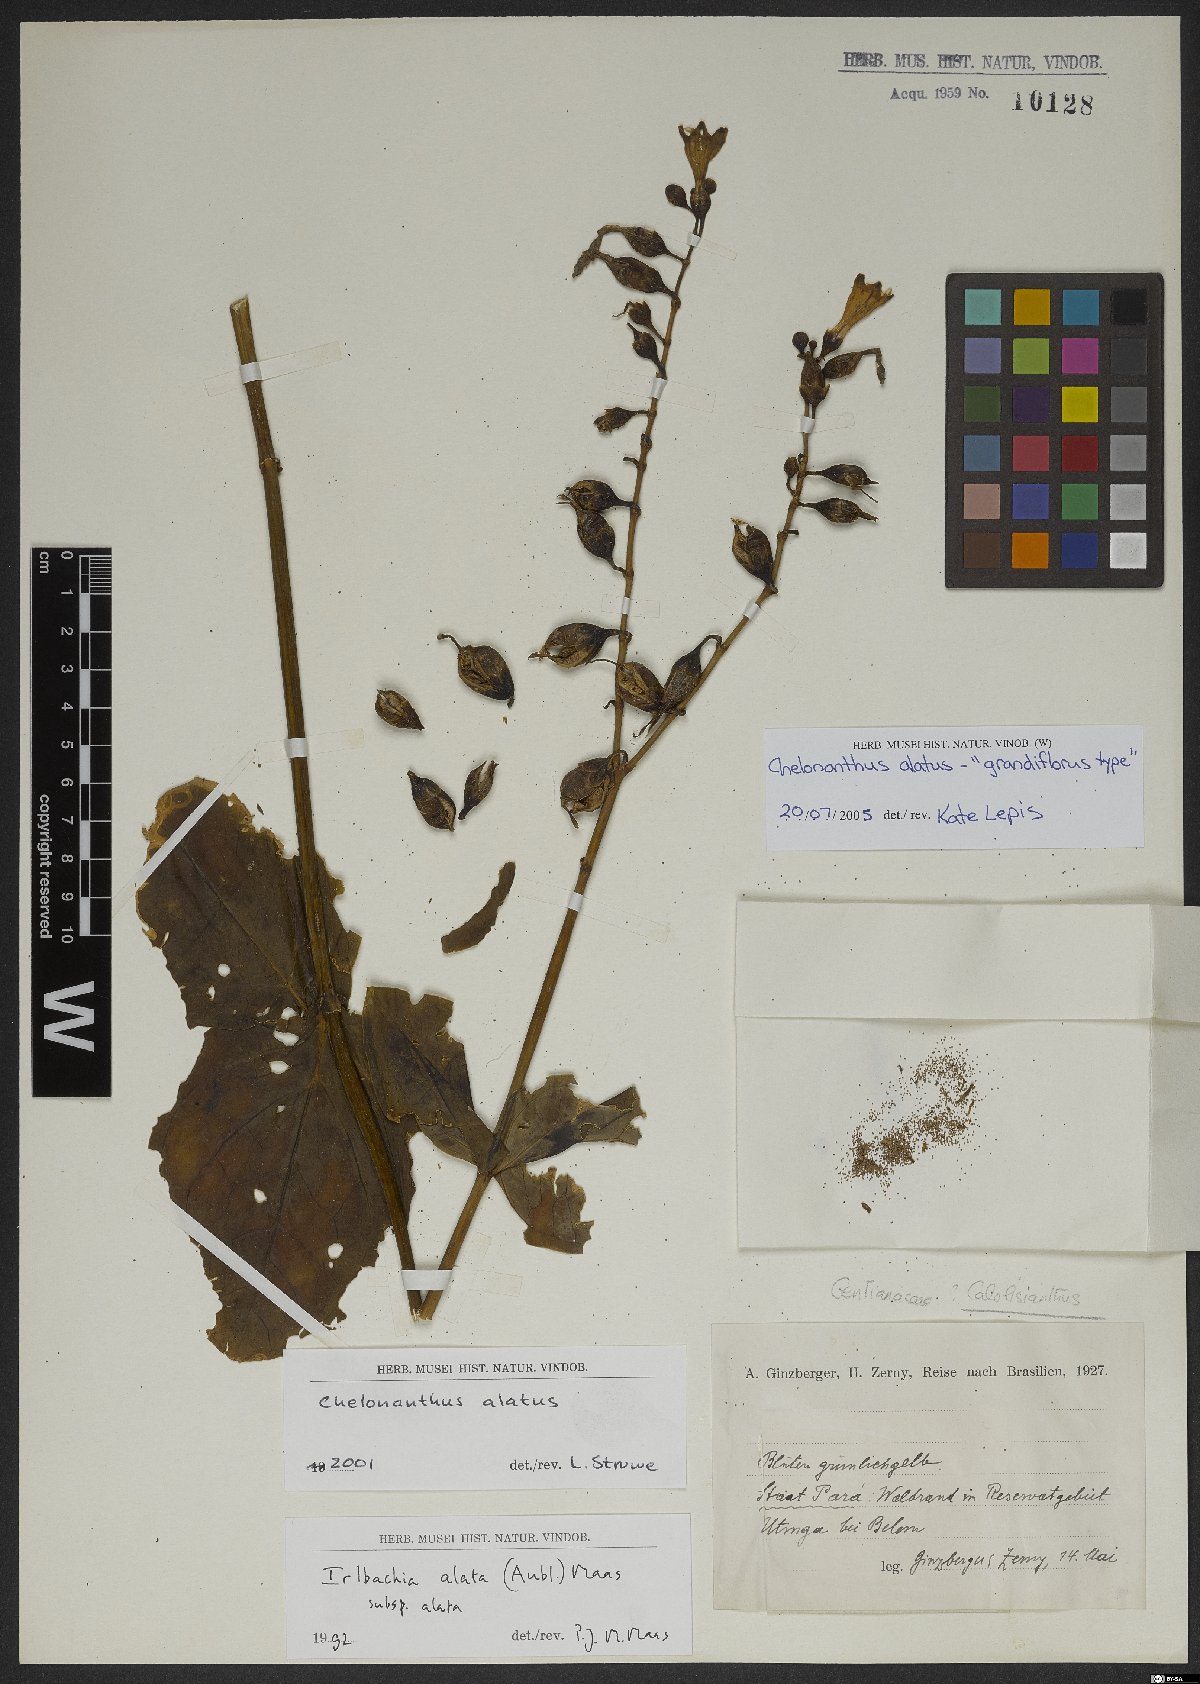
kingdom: Plantae
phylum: Tracheophyta
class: Magnoliopsida
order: Gentianales
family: Gentianaceae
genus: Chelonanthus
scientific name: Chelonanthus alatus
